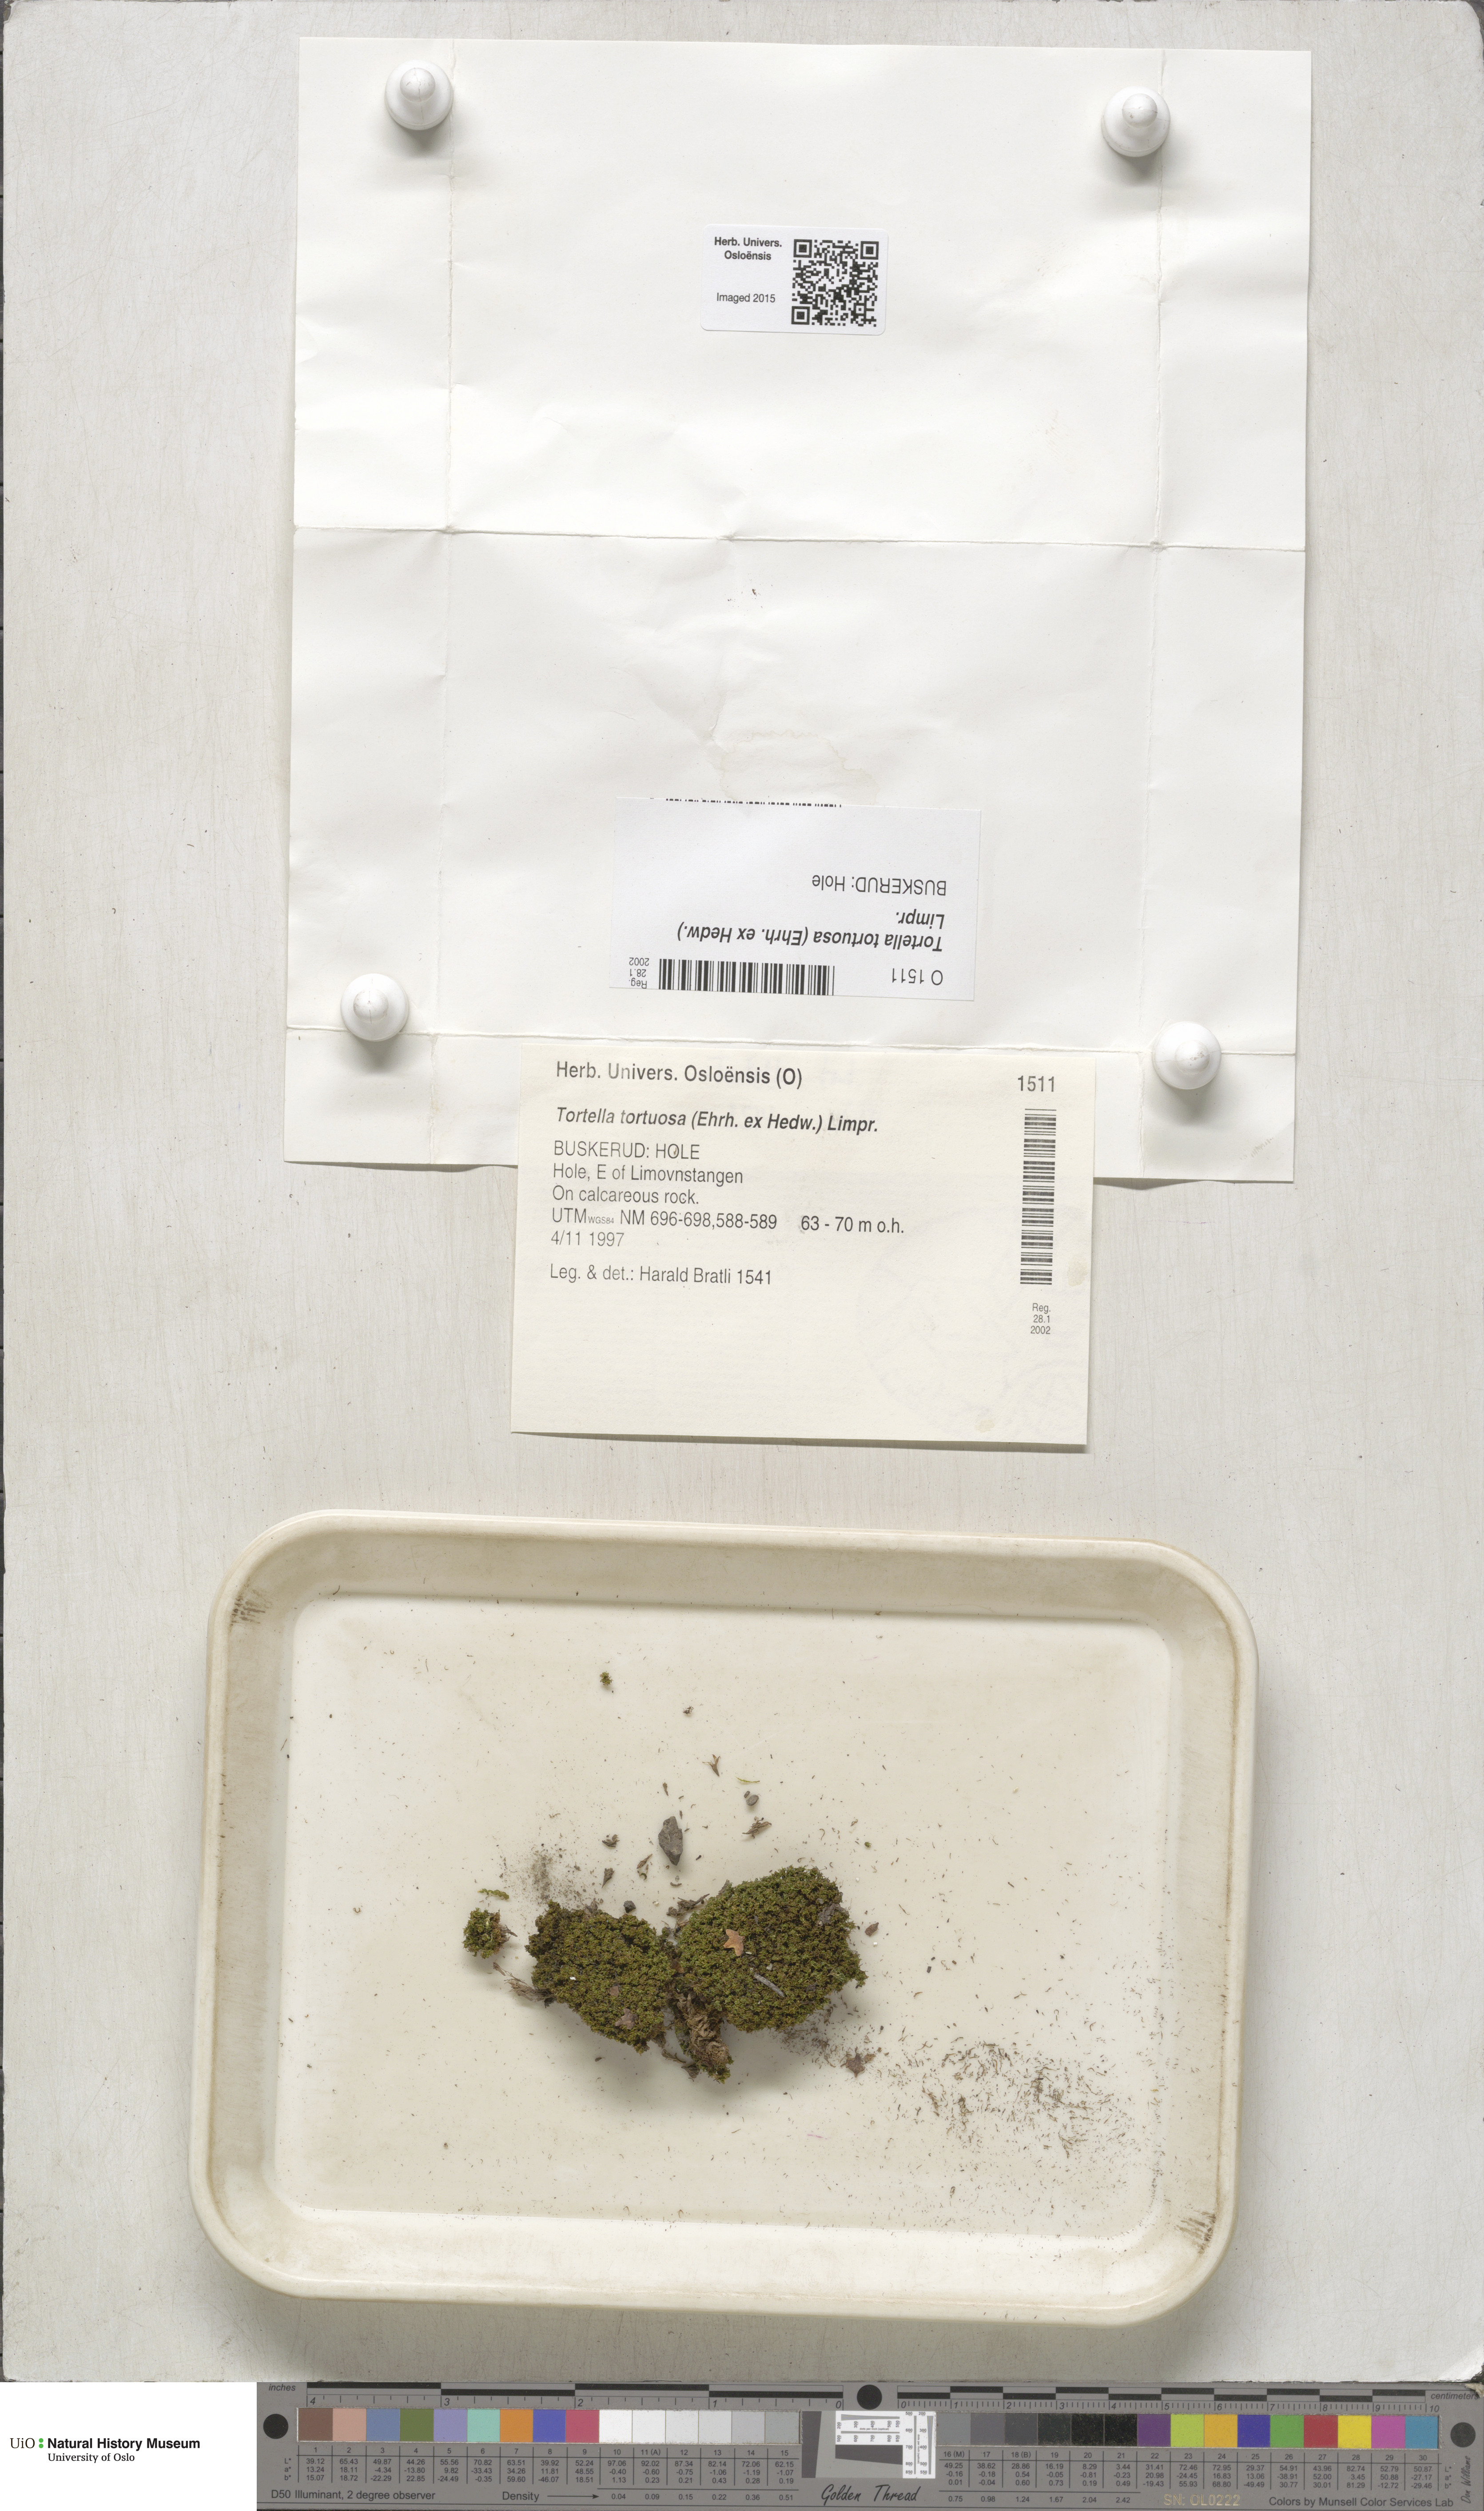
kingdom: Plantae
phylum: Bryophyta
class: Bryopsida
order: Pottiales
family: Pottiaceae
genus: Tortella
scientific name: Tortella tortuosa
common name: Frizzled crisp moss
